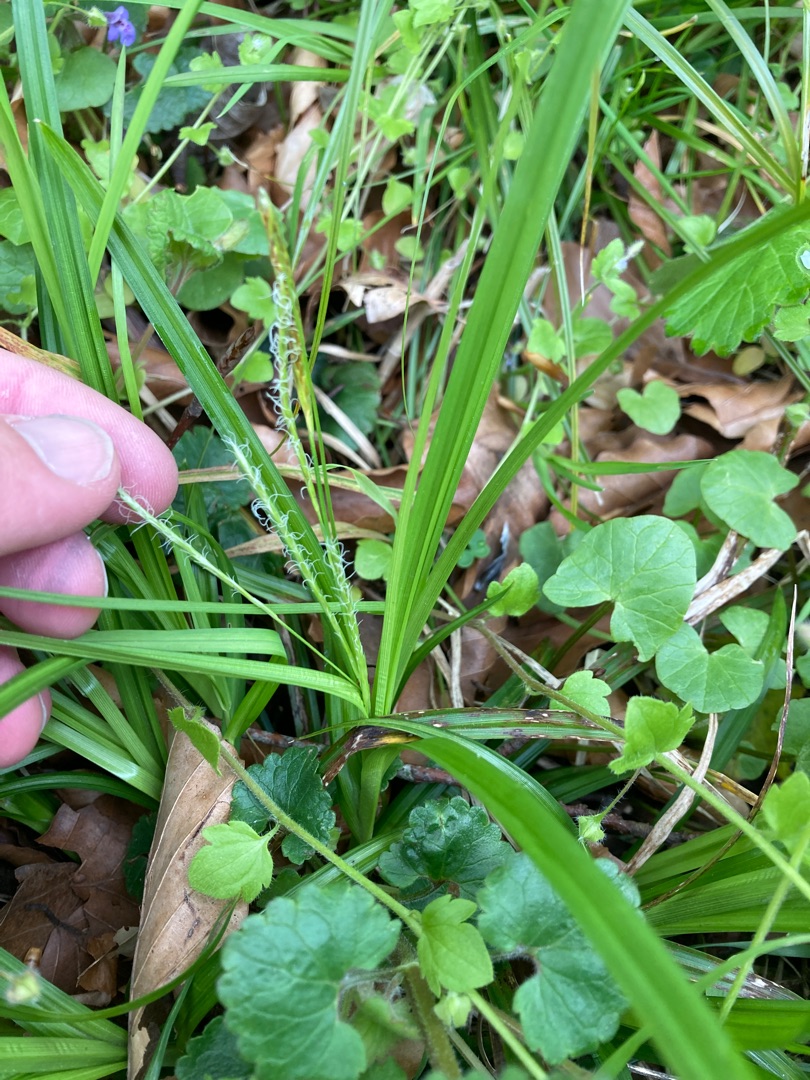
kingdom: Plantae
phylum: Tracheophyta
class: Liliopsida
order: Poales
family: Cyperaceae
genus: Carex
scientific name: Carex sylvatica
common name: Skov-star
